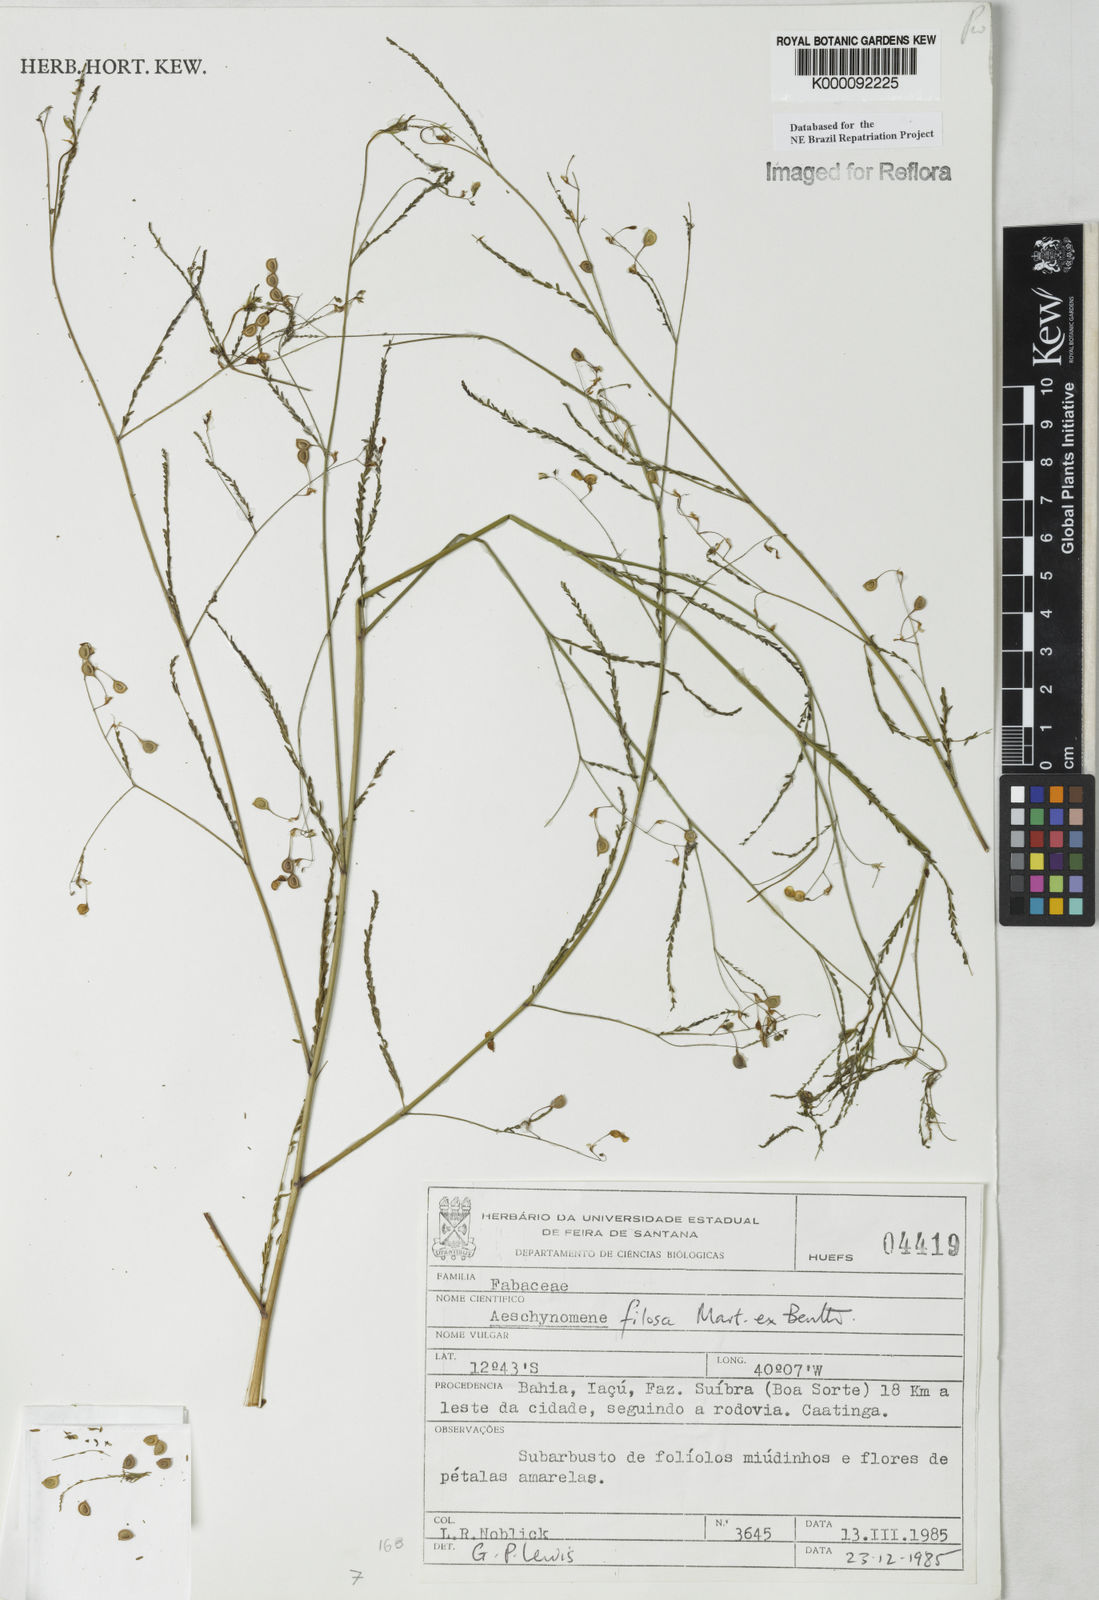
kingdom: Plantae
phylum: Tracheophyta
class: Magnoliopsida
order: Fabales
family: Fabaceae
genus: Aeschynomene
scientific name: Aeschynomene filosa
